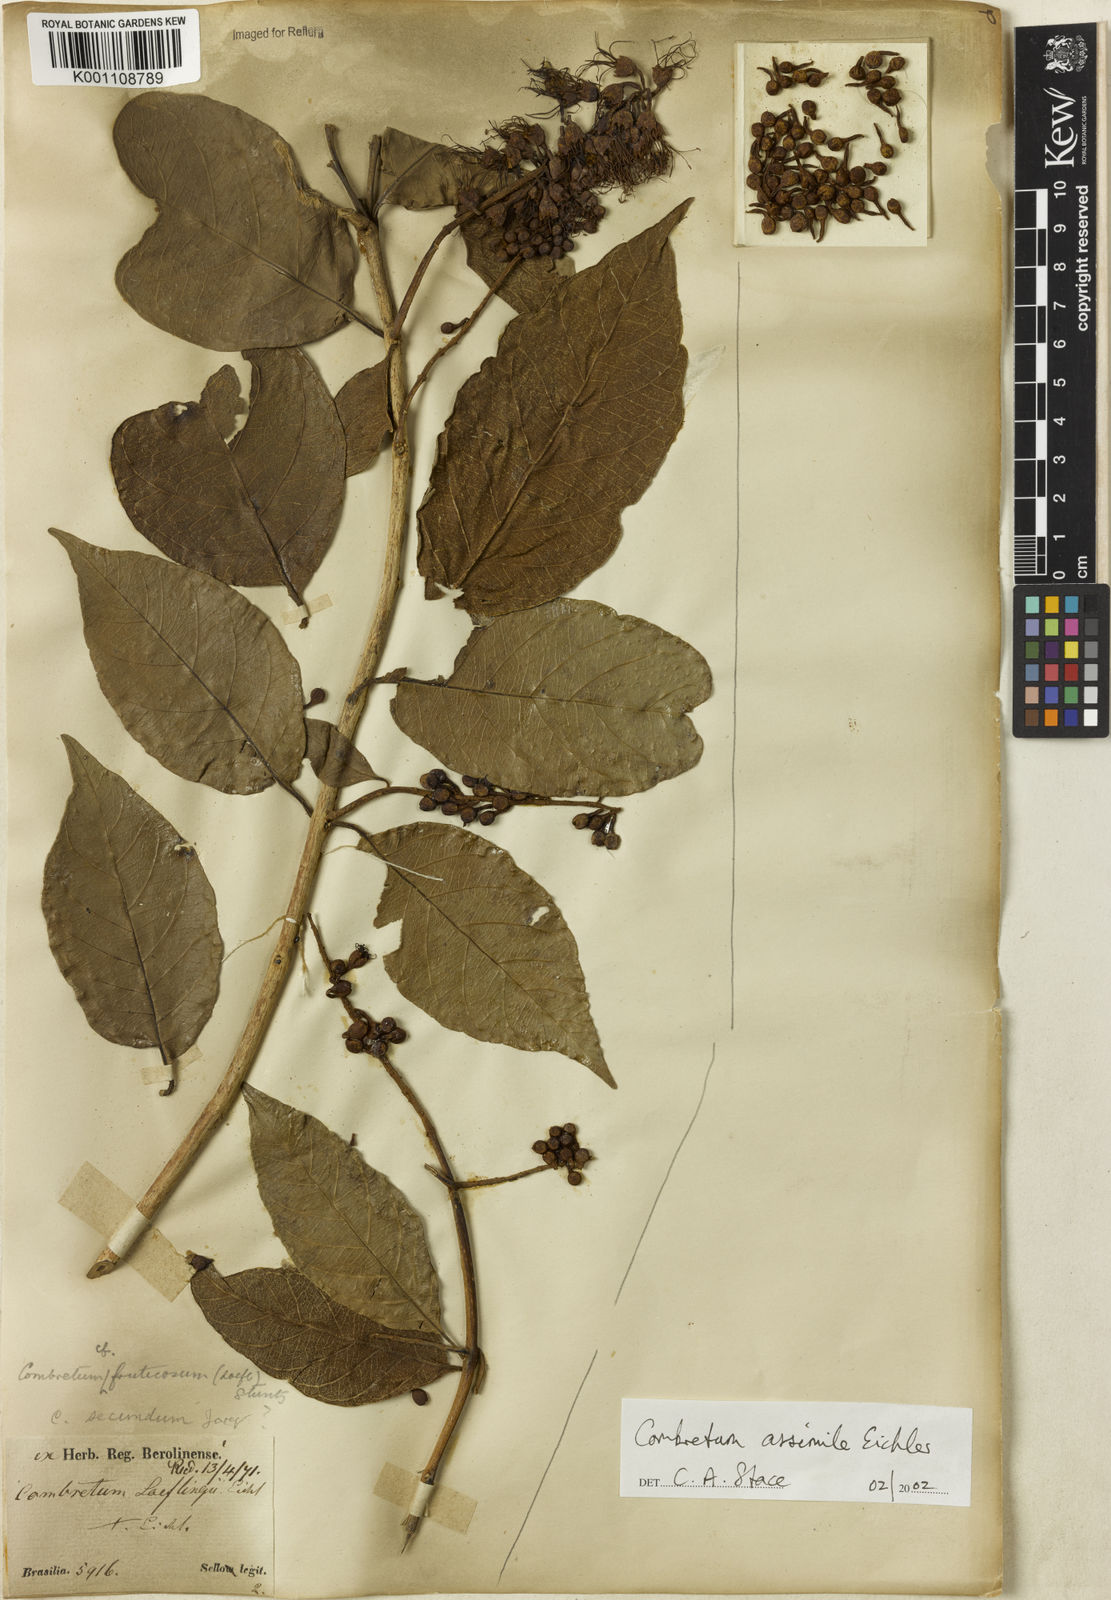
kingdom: Plantae
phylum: Tracheophyta
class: Magnoliopsida
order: Myrtales
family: Combretaceae
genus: Combretum
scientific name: Combretum assimile
